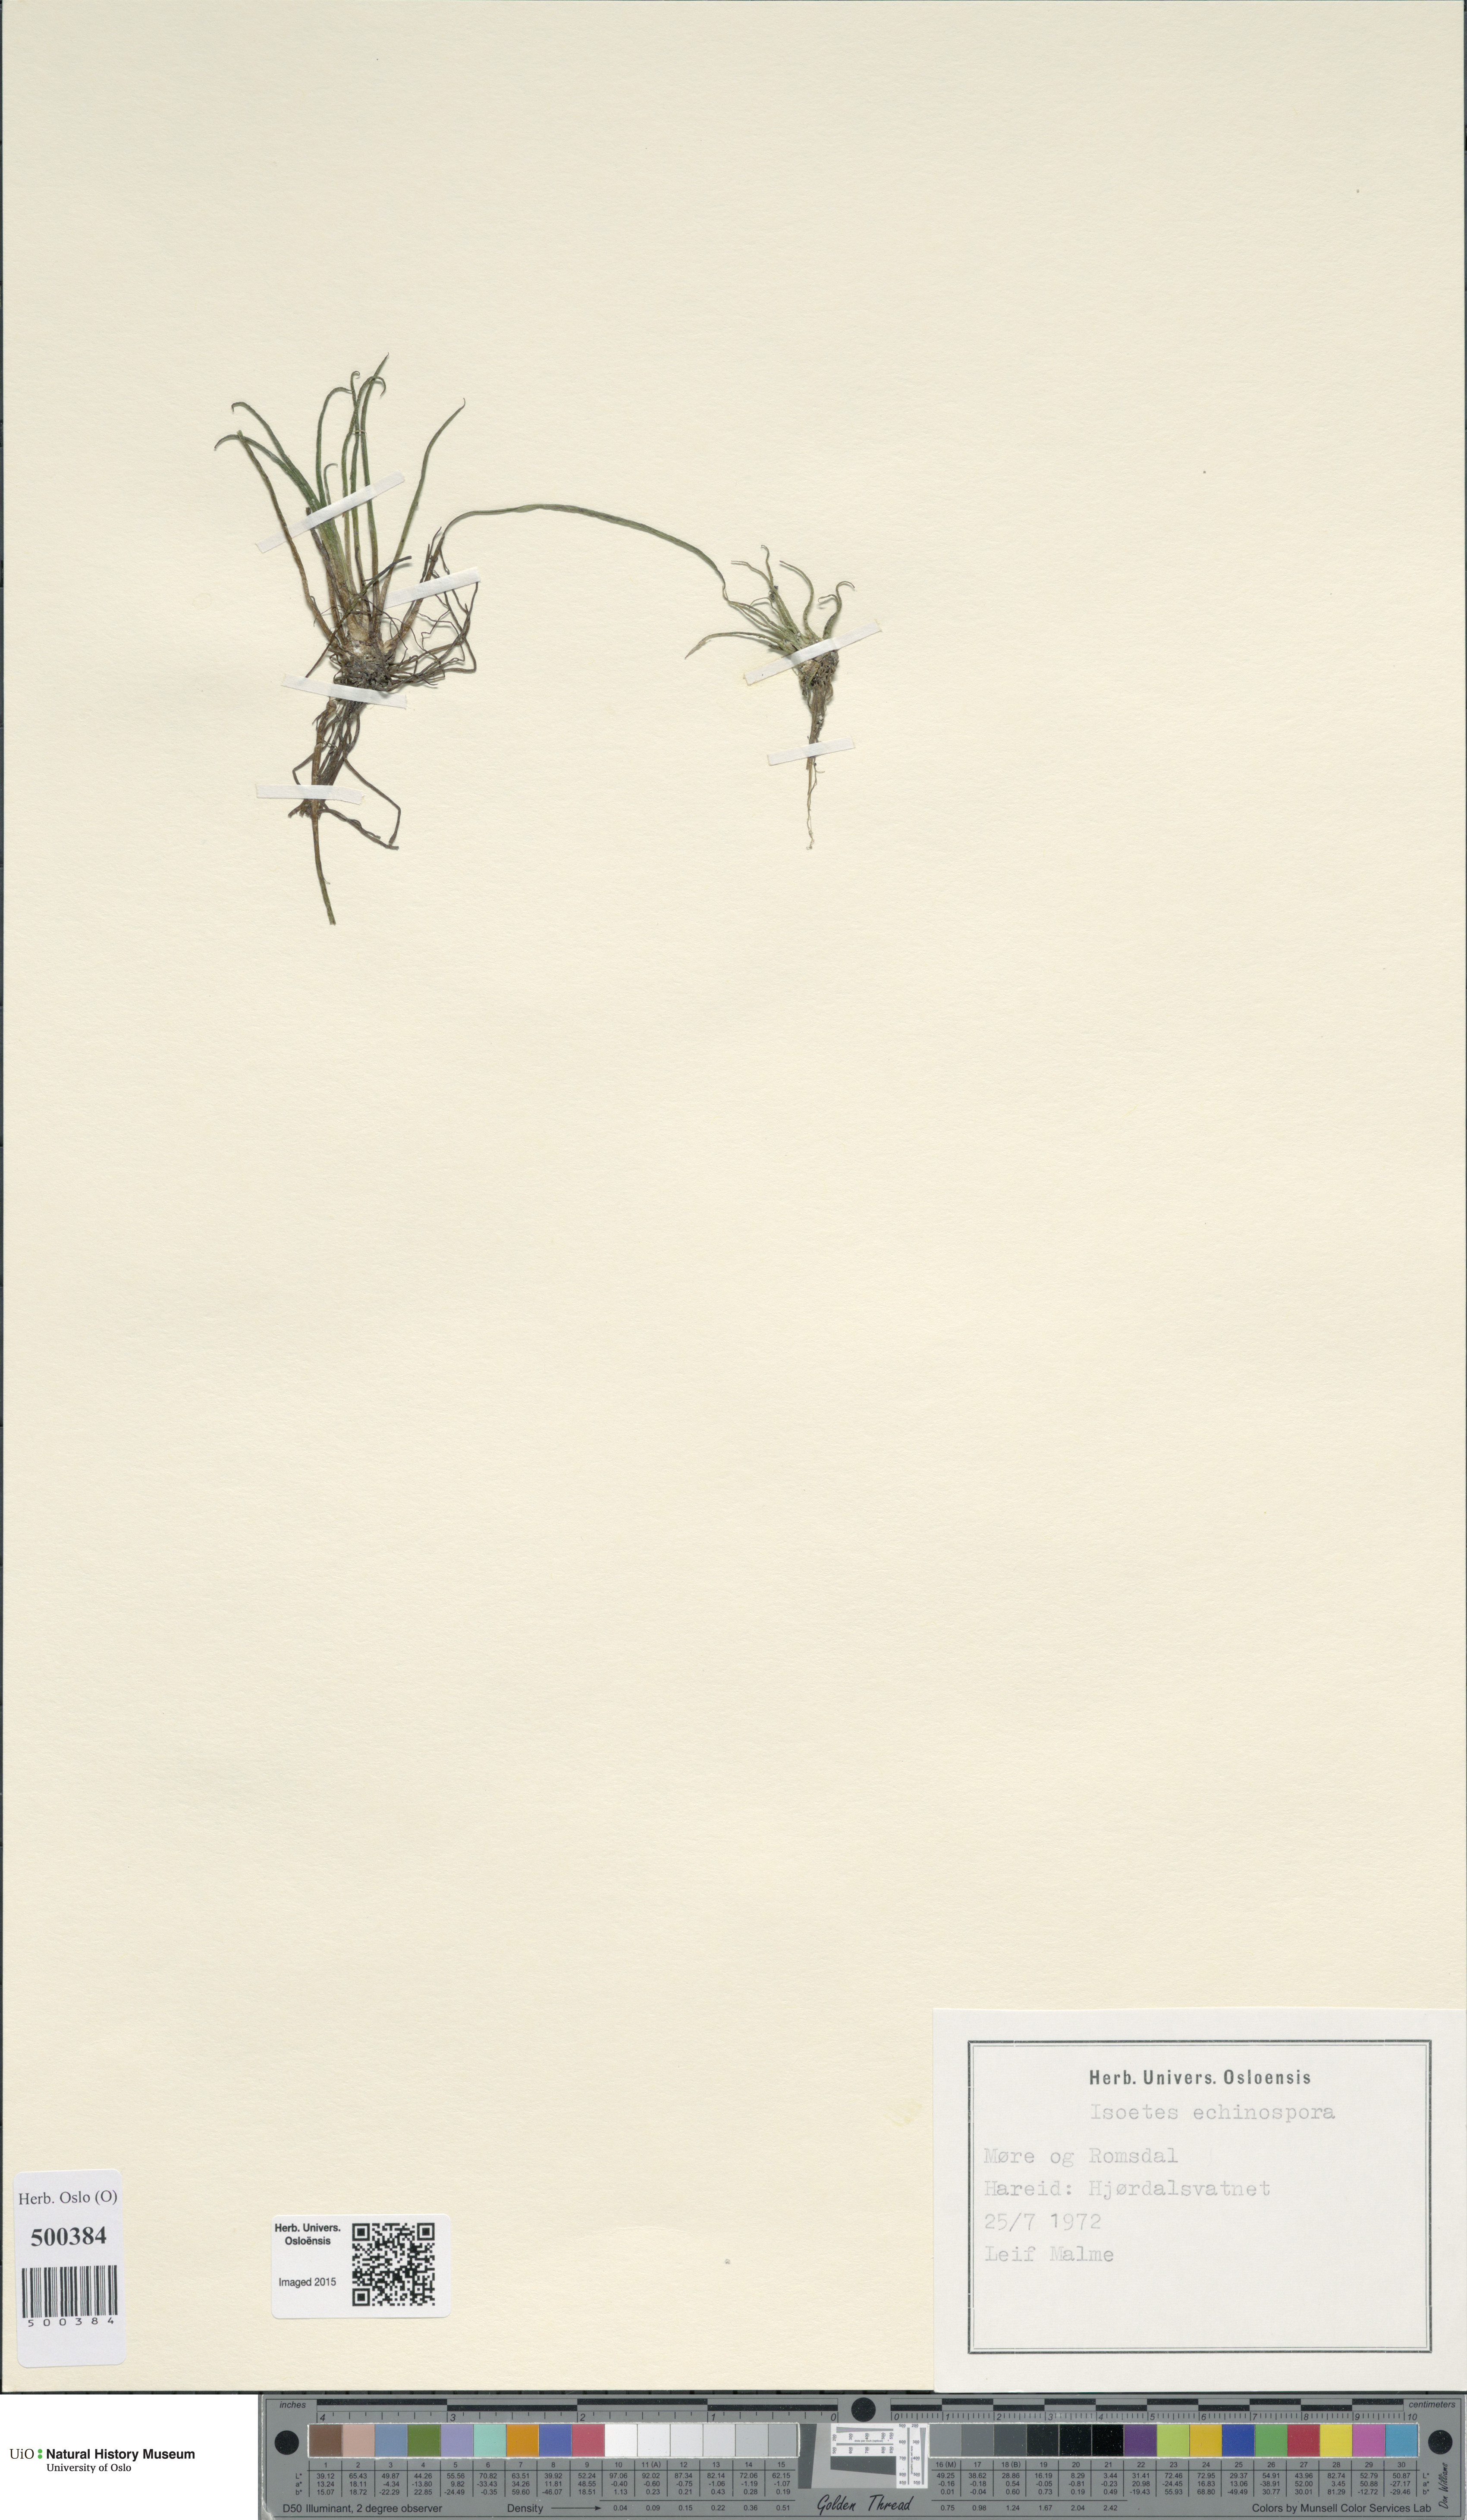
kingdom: Plantae
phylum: Tracheophyta
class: Lycopodiopsida
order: Isoetales
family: Isoetaceae
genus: Isoetes
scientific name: Isoetes echinospora
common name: Spring quillwort
